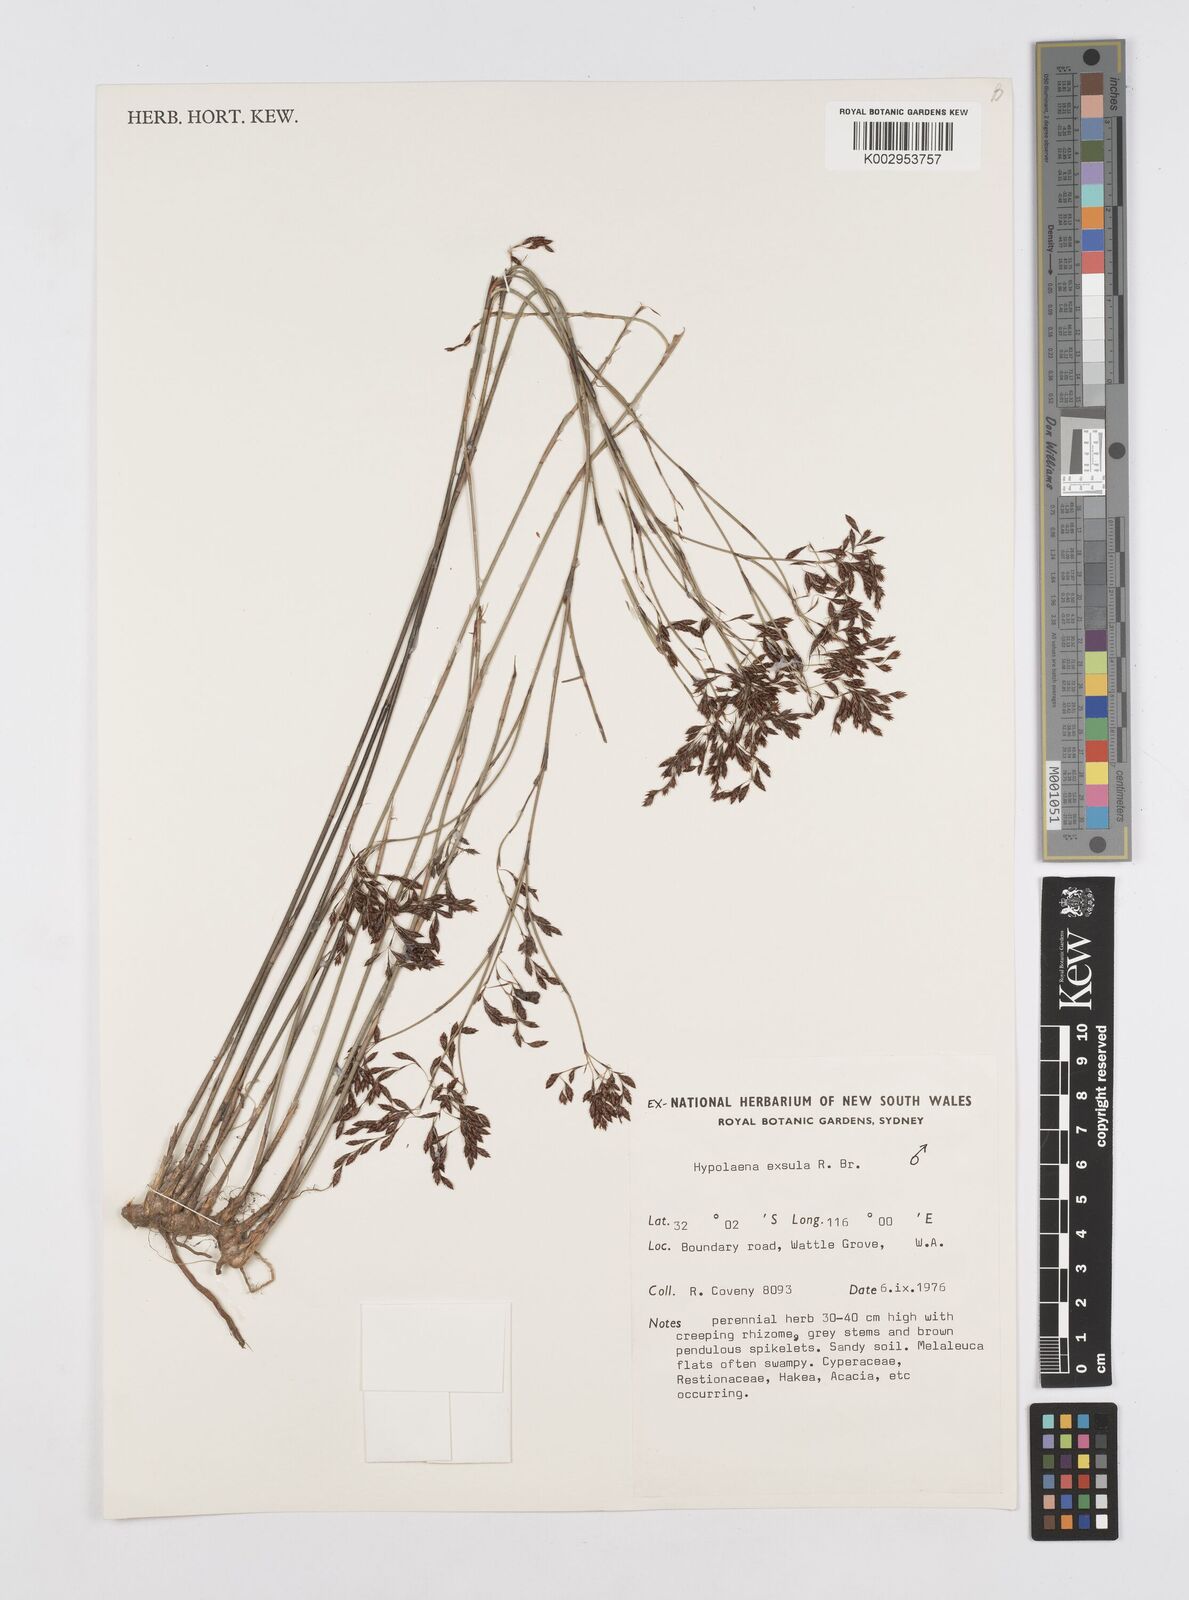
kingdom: Plantae
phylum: Tracheophyta
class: Liliopsida
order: Poales
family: Restionaceae
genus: Hypolaena
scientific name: Hypolaena exsulca
